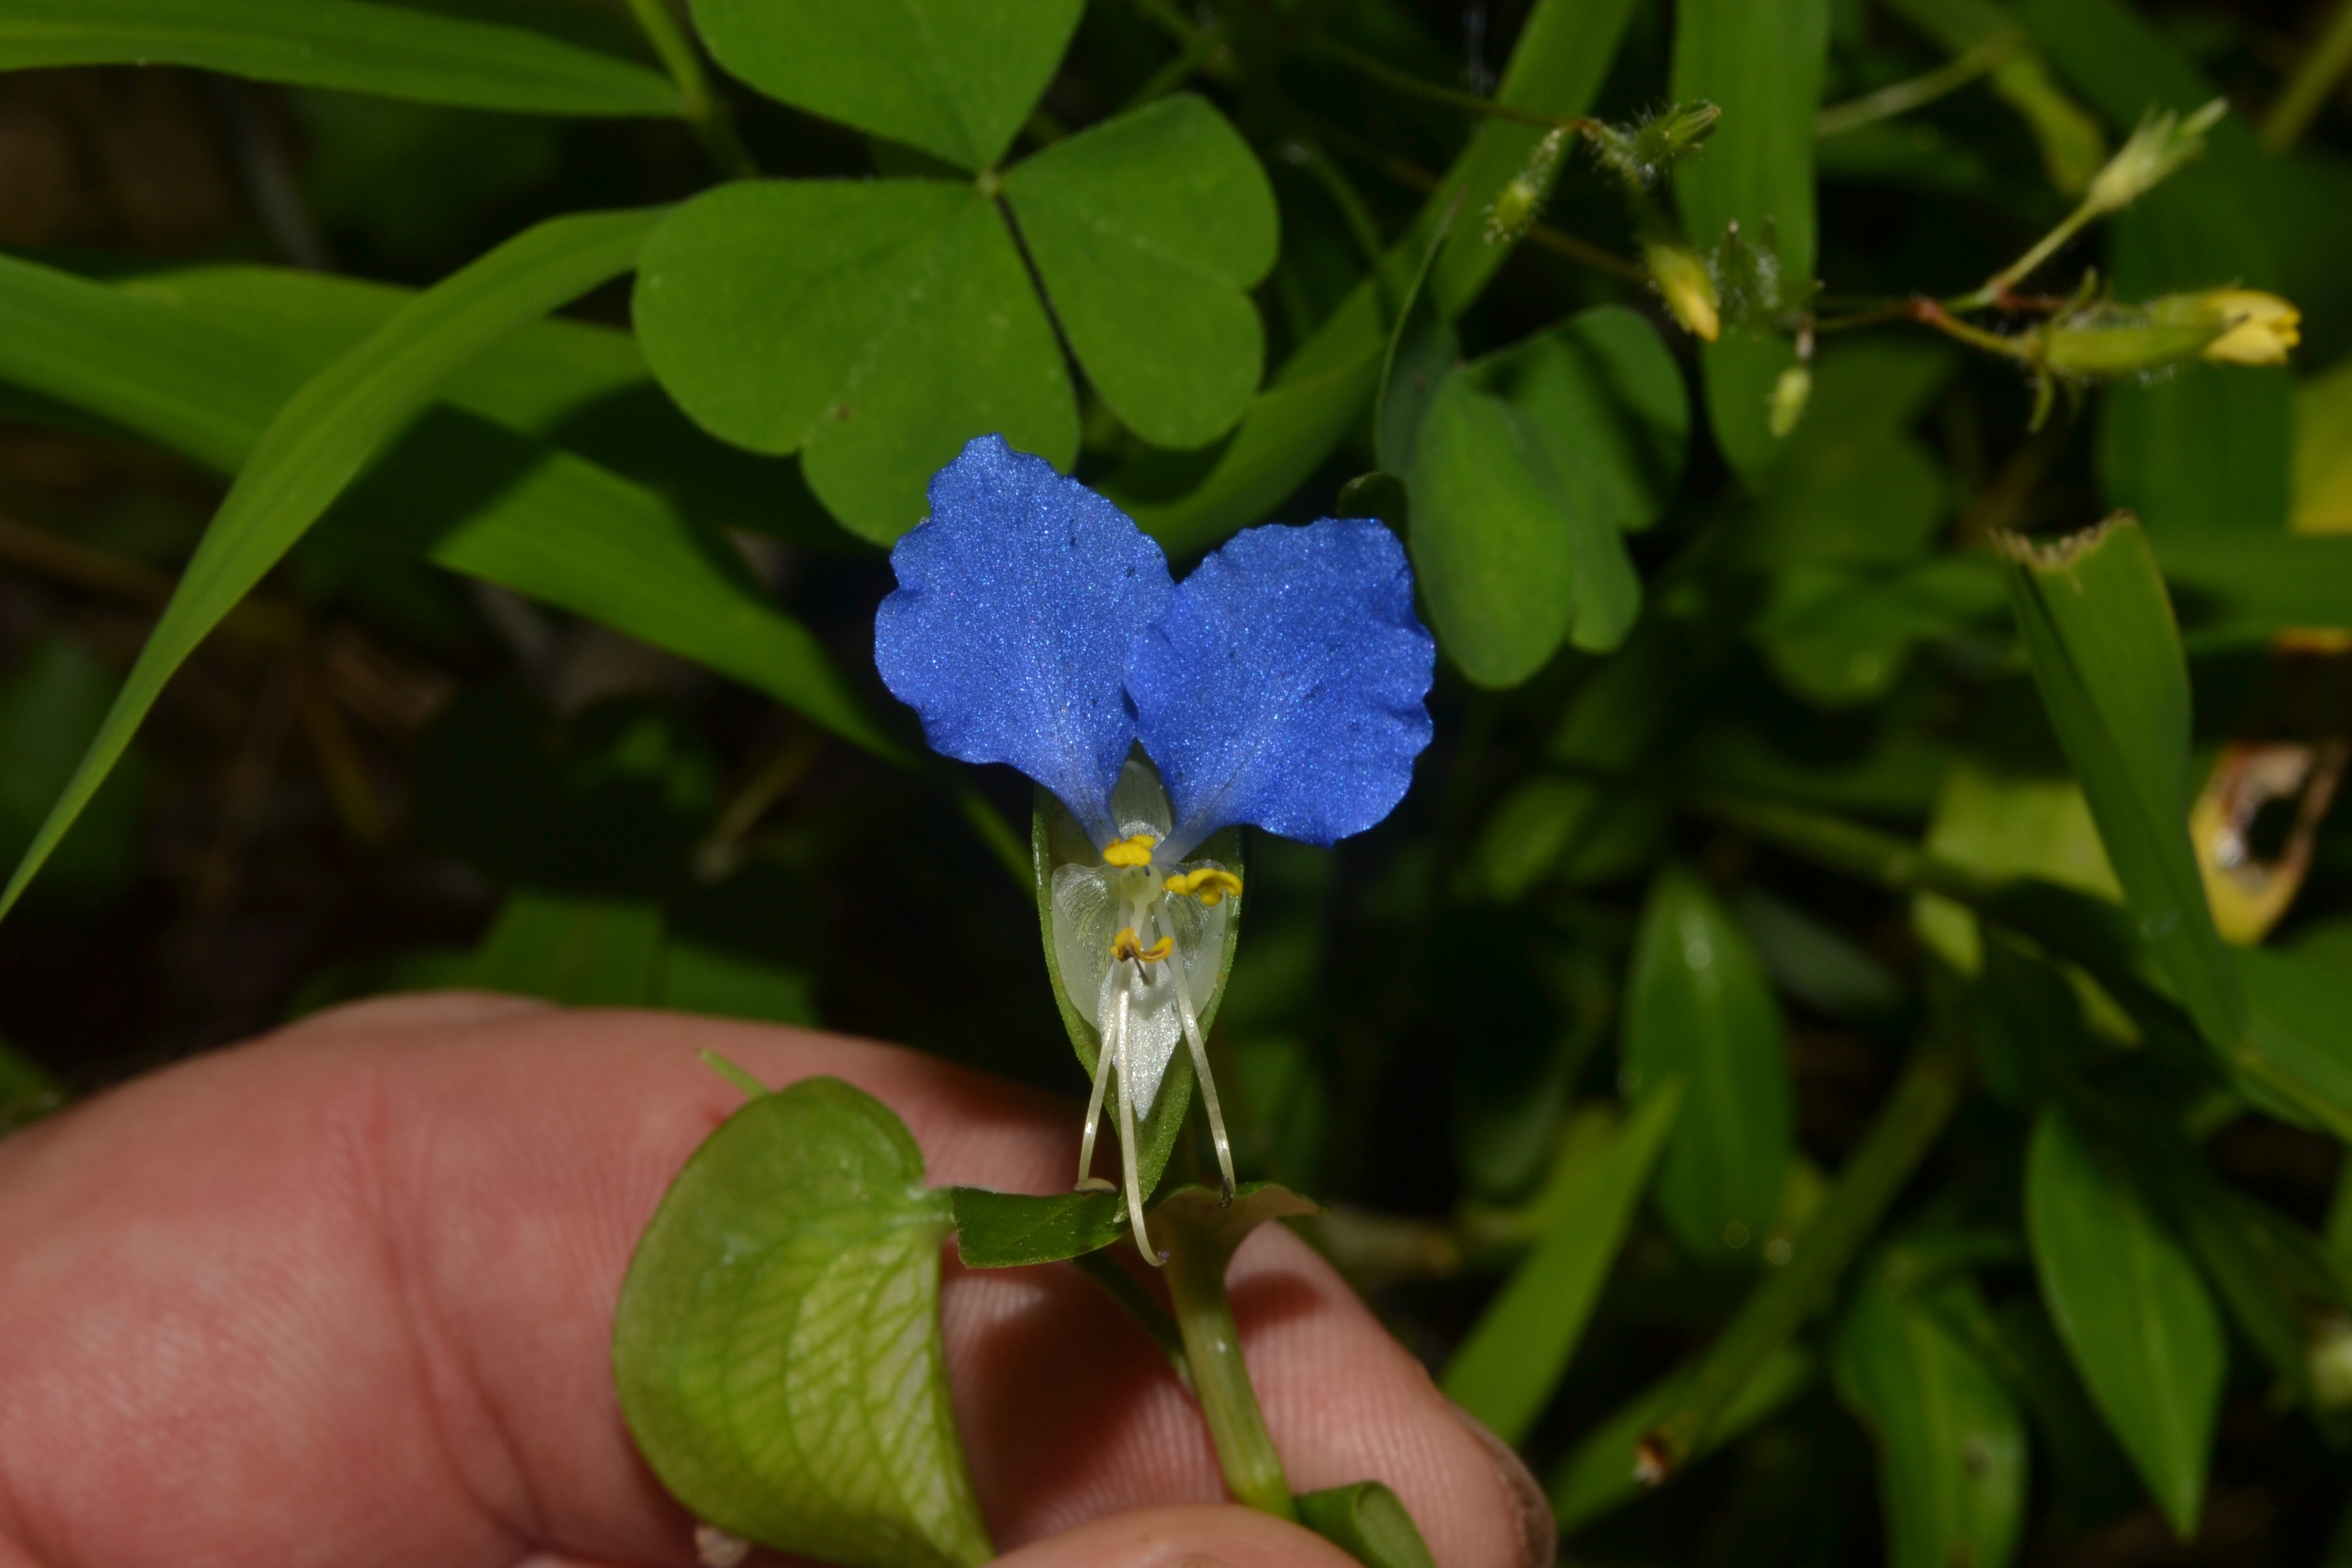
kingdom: Plantae
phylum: Tracheophyta
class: Liliopsida
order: Commelinales
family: Commelinaceae
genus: Commelina
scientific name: Commelina communis
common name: Asiatic Dayflower
